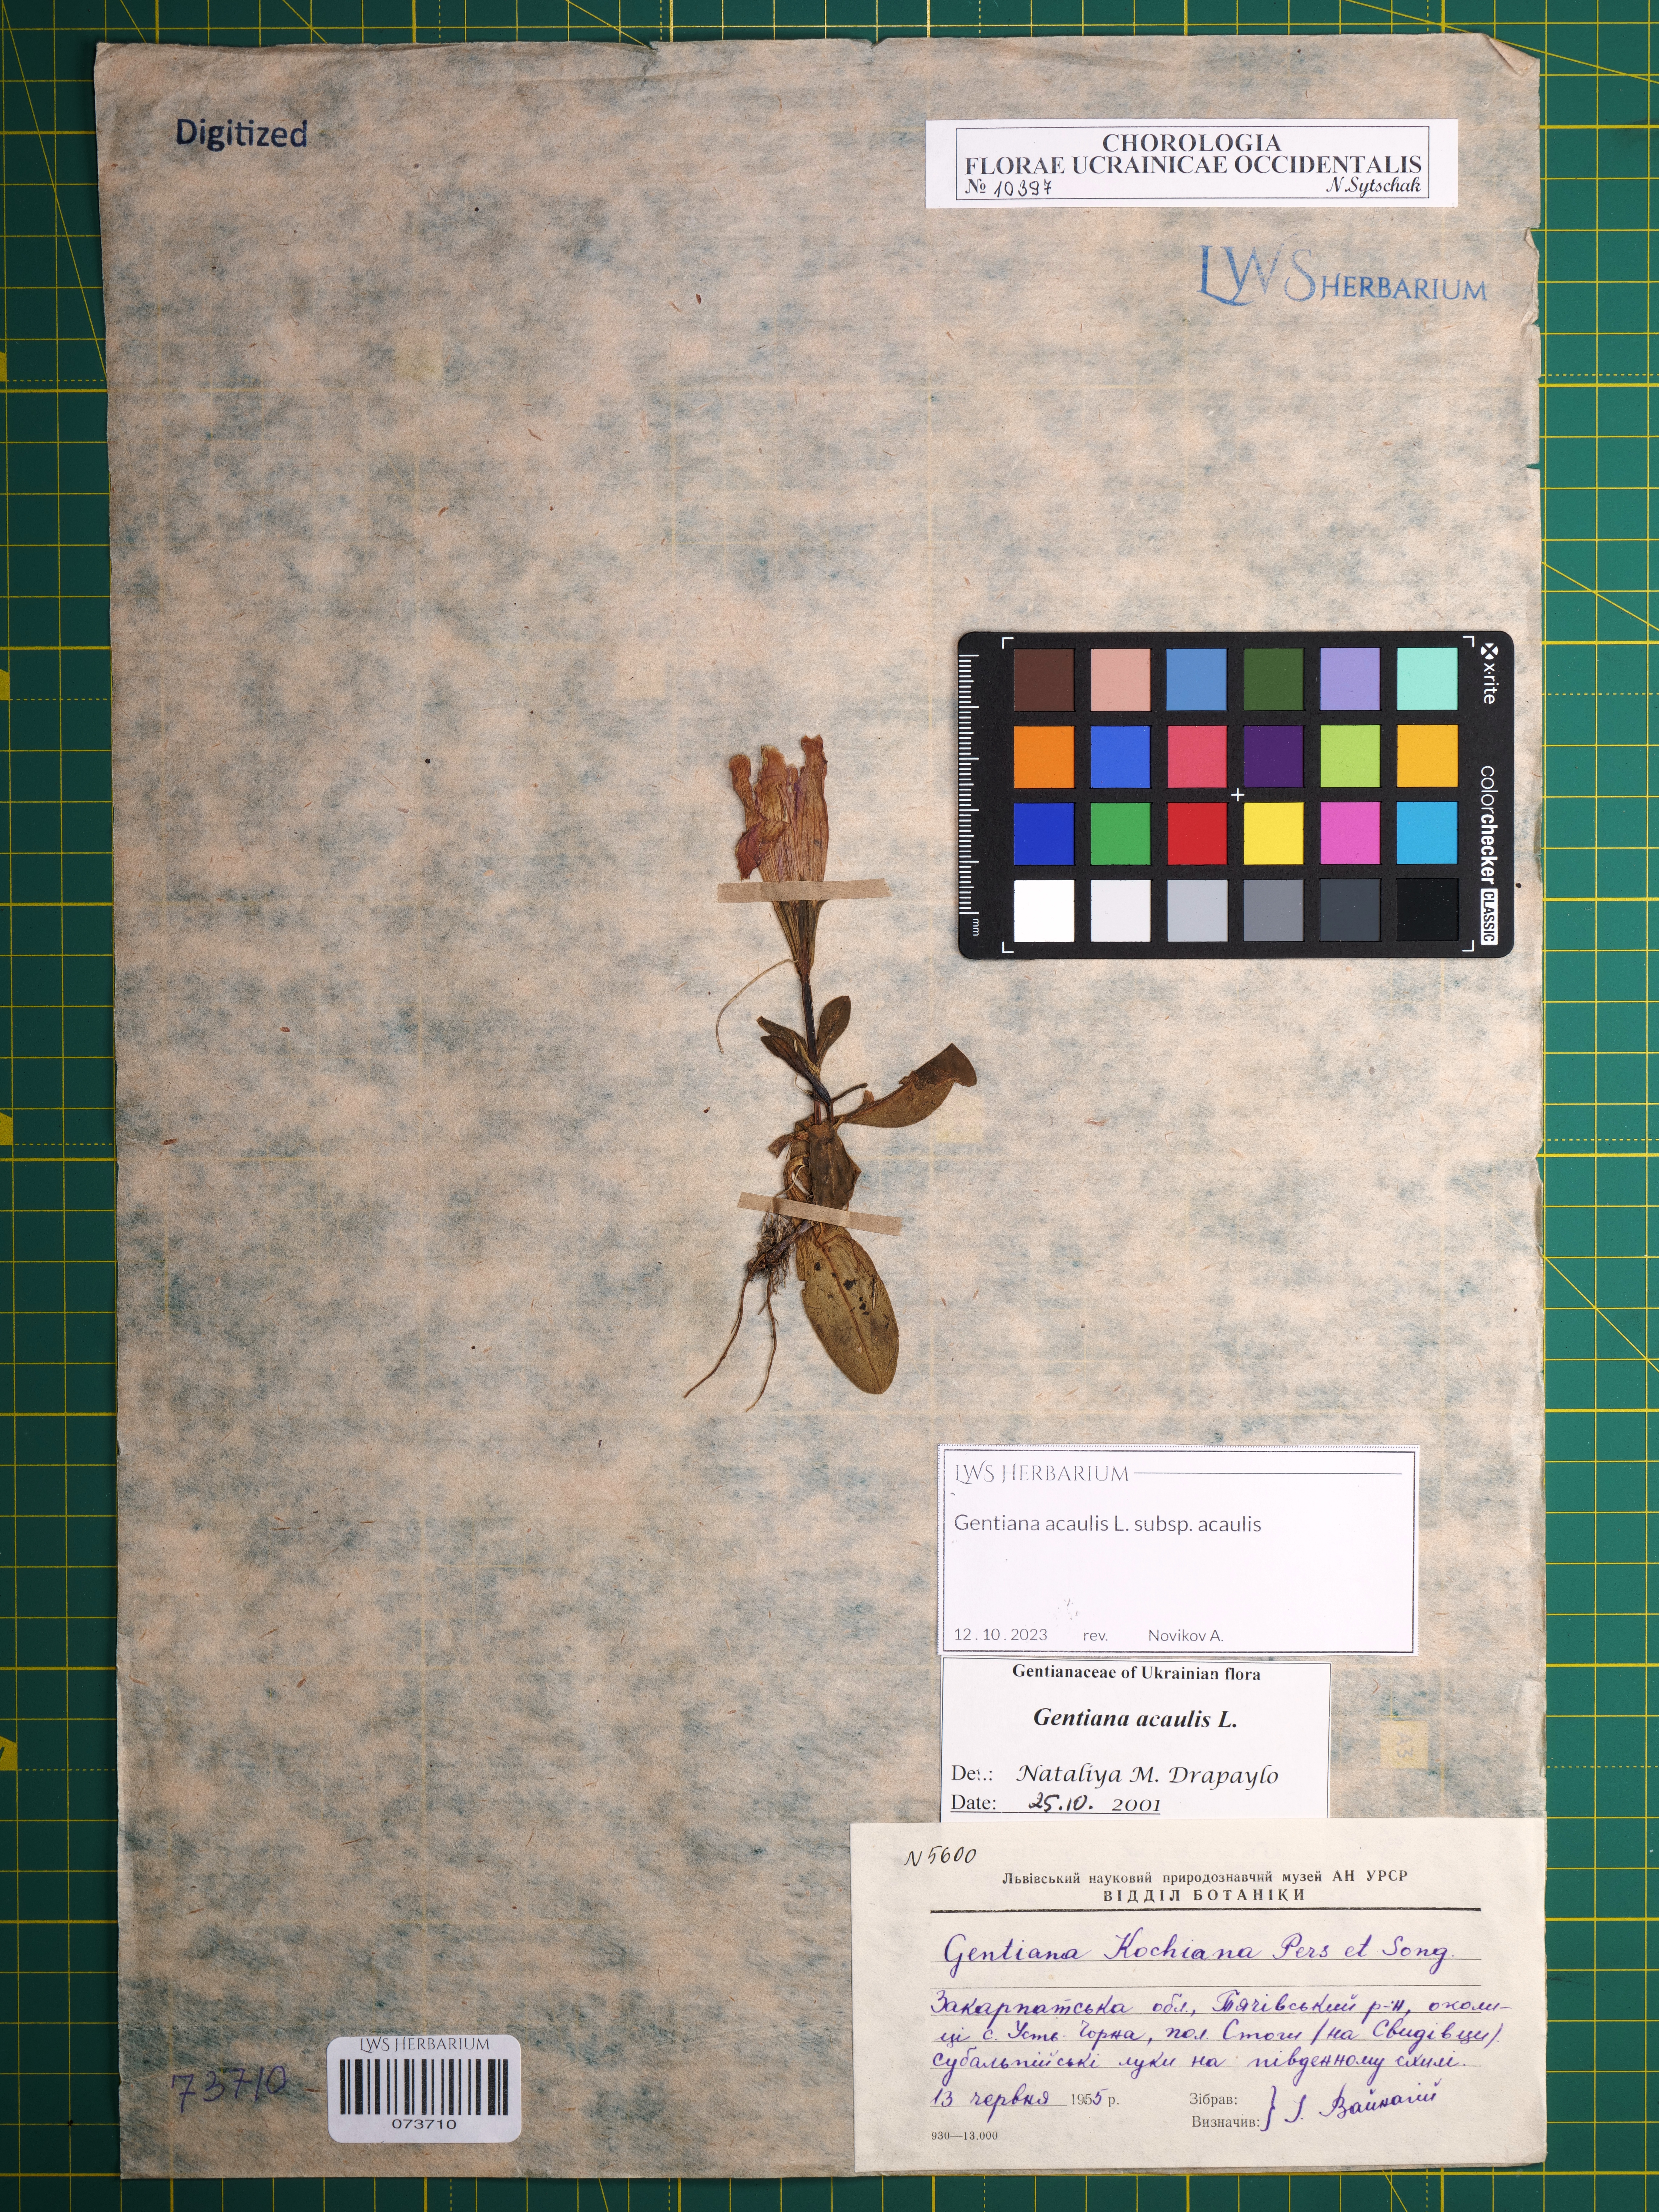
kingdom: Plantae
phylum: Tracheophyta
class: Magnoliopsida
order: Gentianales
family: Gentianaceae
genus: Gentiana
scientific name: Gentiana acaulis
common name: Trumpet gentian
